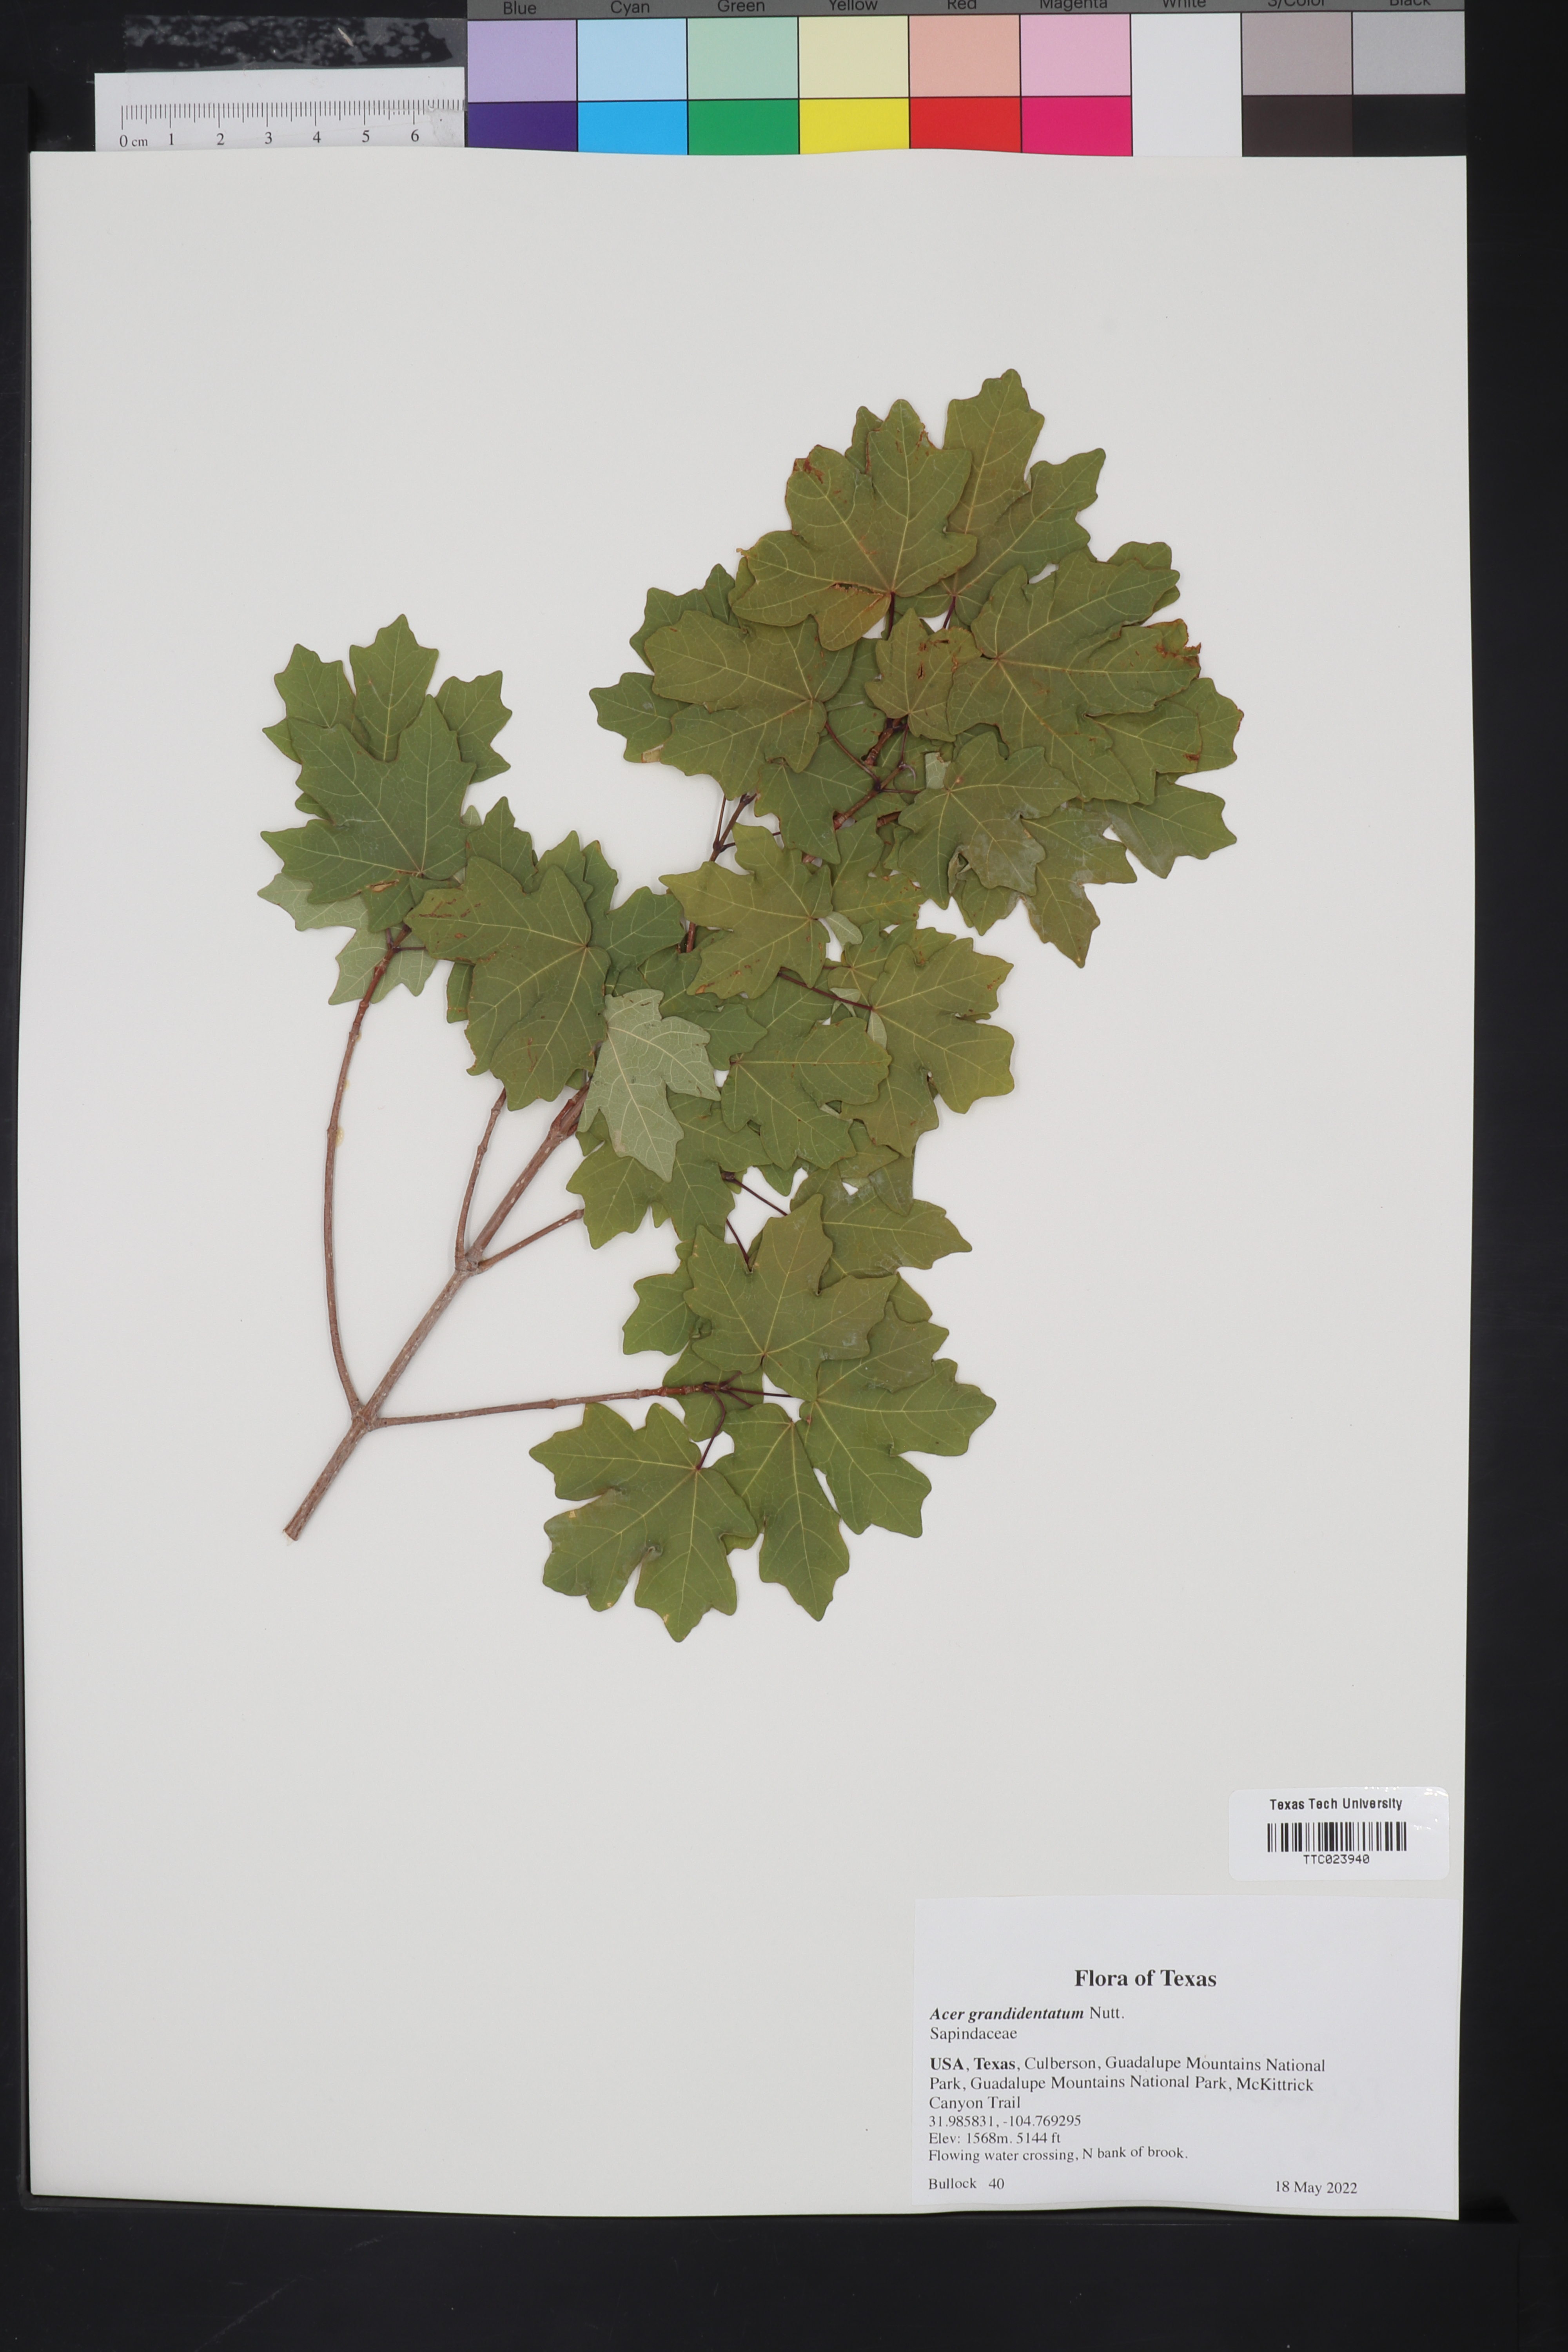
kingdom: Plantae
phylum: Tracheophyta
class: Magnoliopsida
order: Sapindales
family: Sapindaceae
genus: Acer
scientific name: Acer grandidentatum
